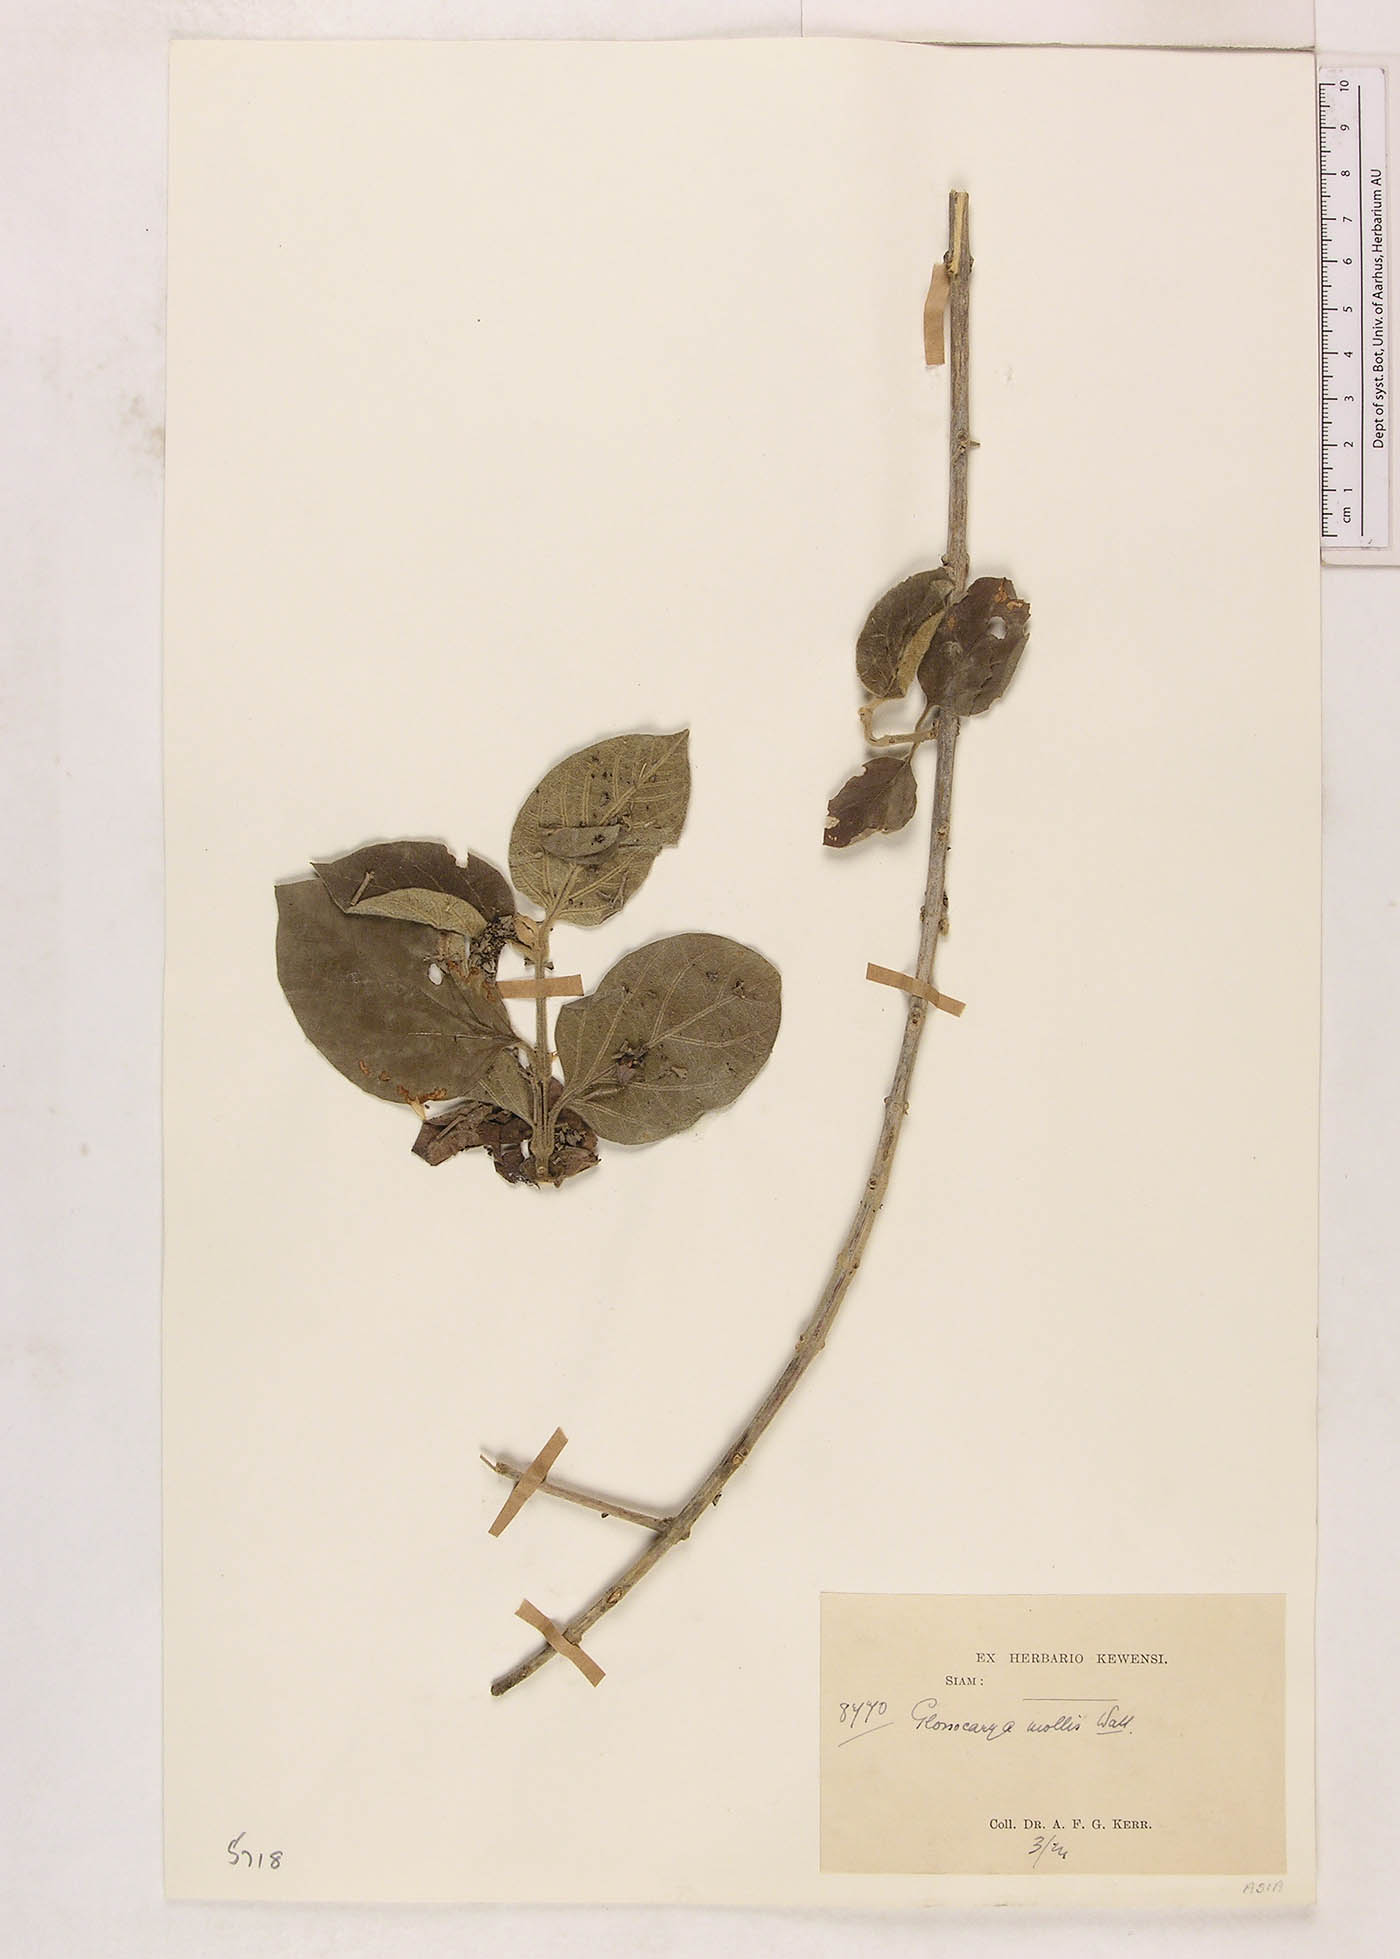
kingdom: Plantae
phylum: Tracheophyta
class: Magnoliopsida
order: Lamiales
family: Lamiaceae
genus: Glossocarya
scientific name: Glossocarya mollis
